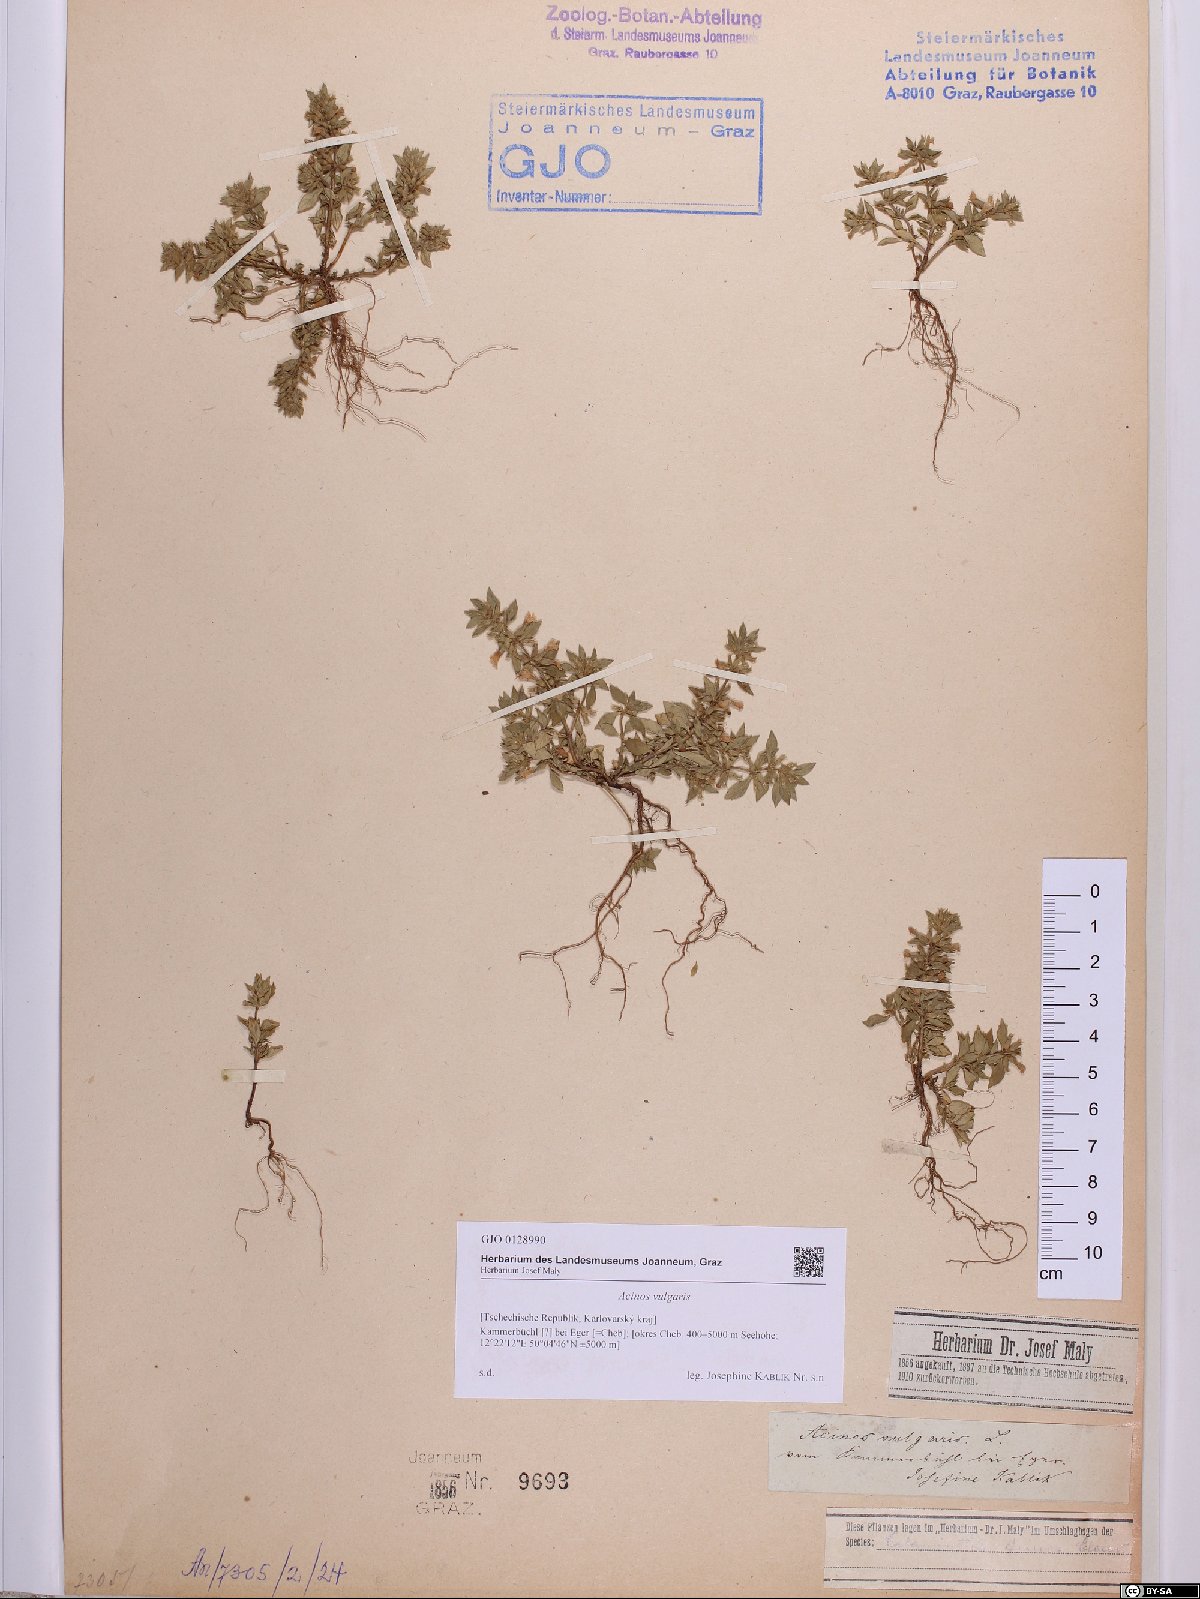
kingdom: Plantae
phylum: Tracheophyta
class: Magnoliopsida
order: Lamiales
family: Lamiaceae
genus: Clinopodium
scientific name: Clinopodium vulgare
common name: Wild basil
